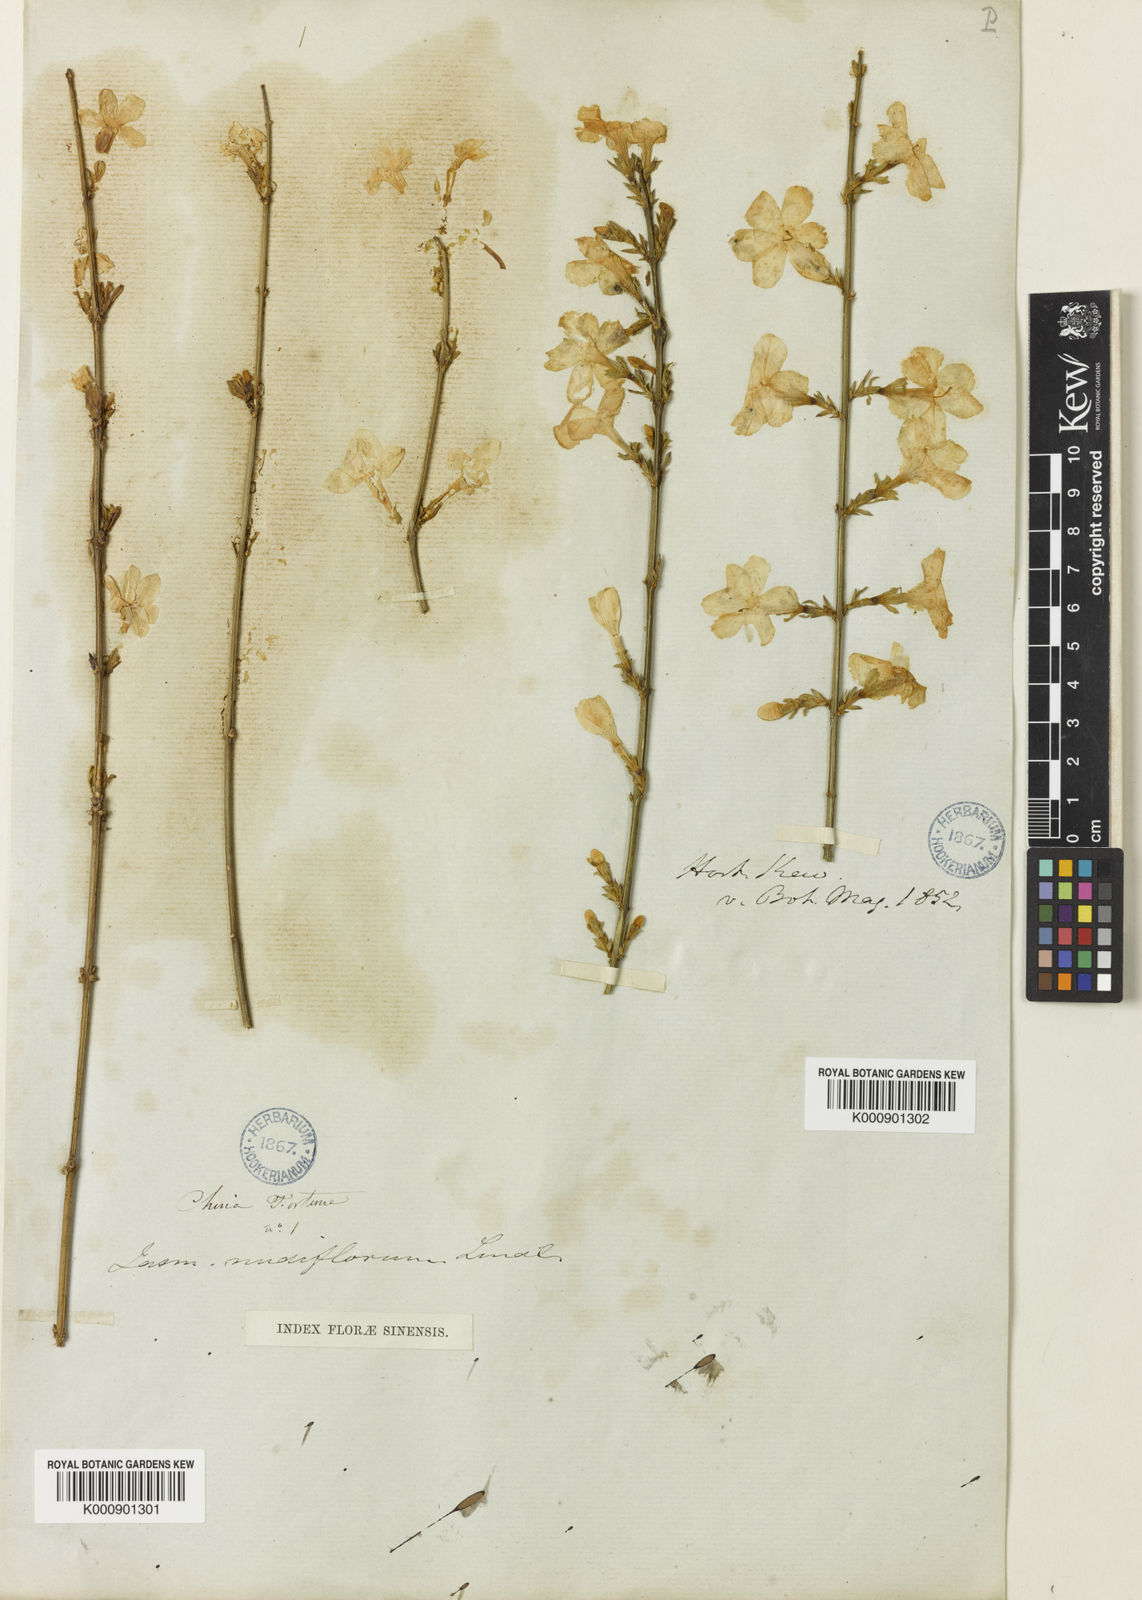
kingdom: Plantae
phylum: Tracheophyta
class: Magnoliopsida
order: Lamiales
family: Oleaceae
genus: Jasminum
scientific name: Jasminum nudiflorum
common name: Winter jasmine
